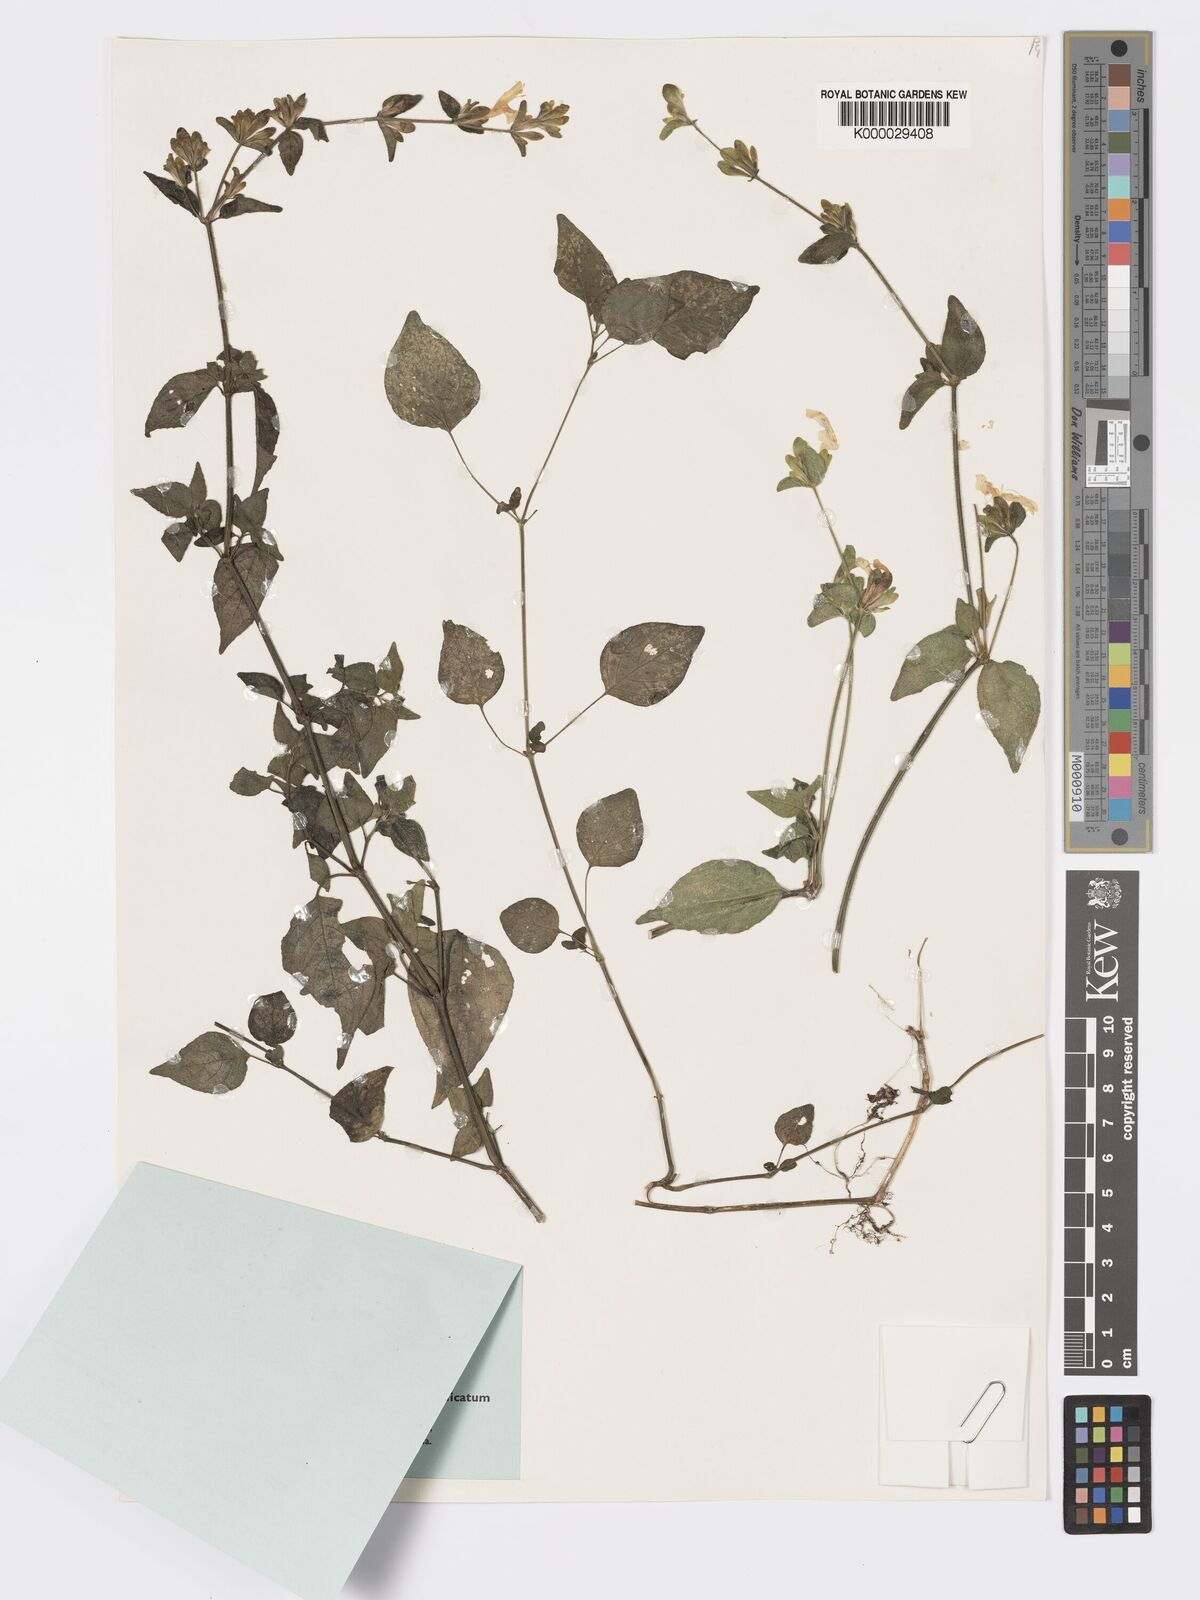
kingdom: Plantae
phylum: Tracheophyta
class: Magnoliopsida
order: Lamiales
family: Acanthaceae
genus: Hypoestes
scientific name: Hypoestes triflora
